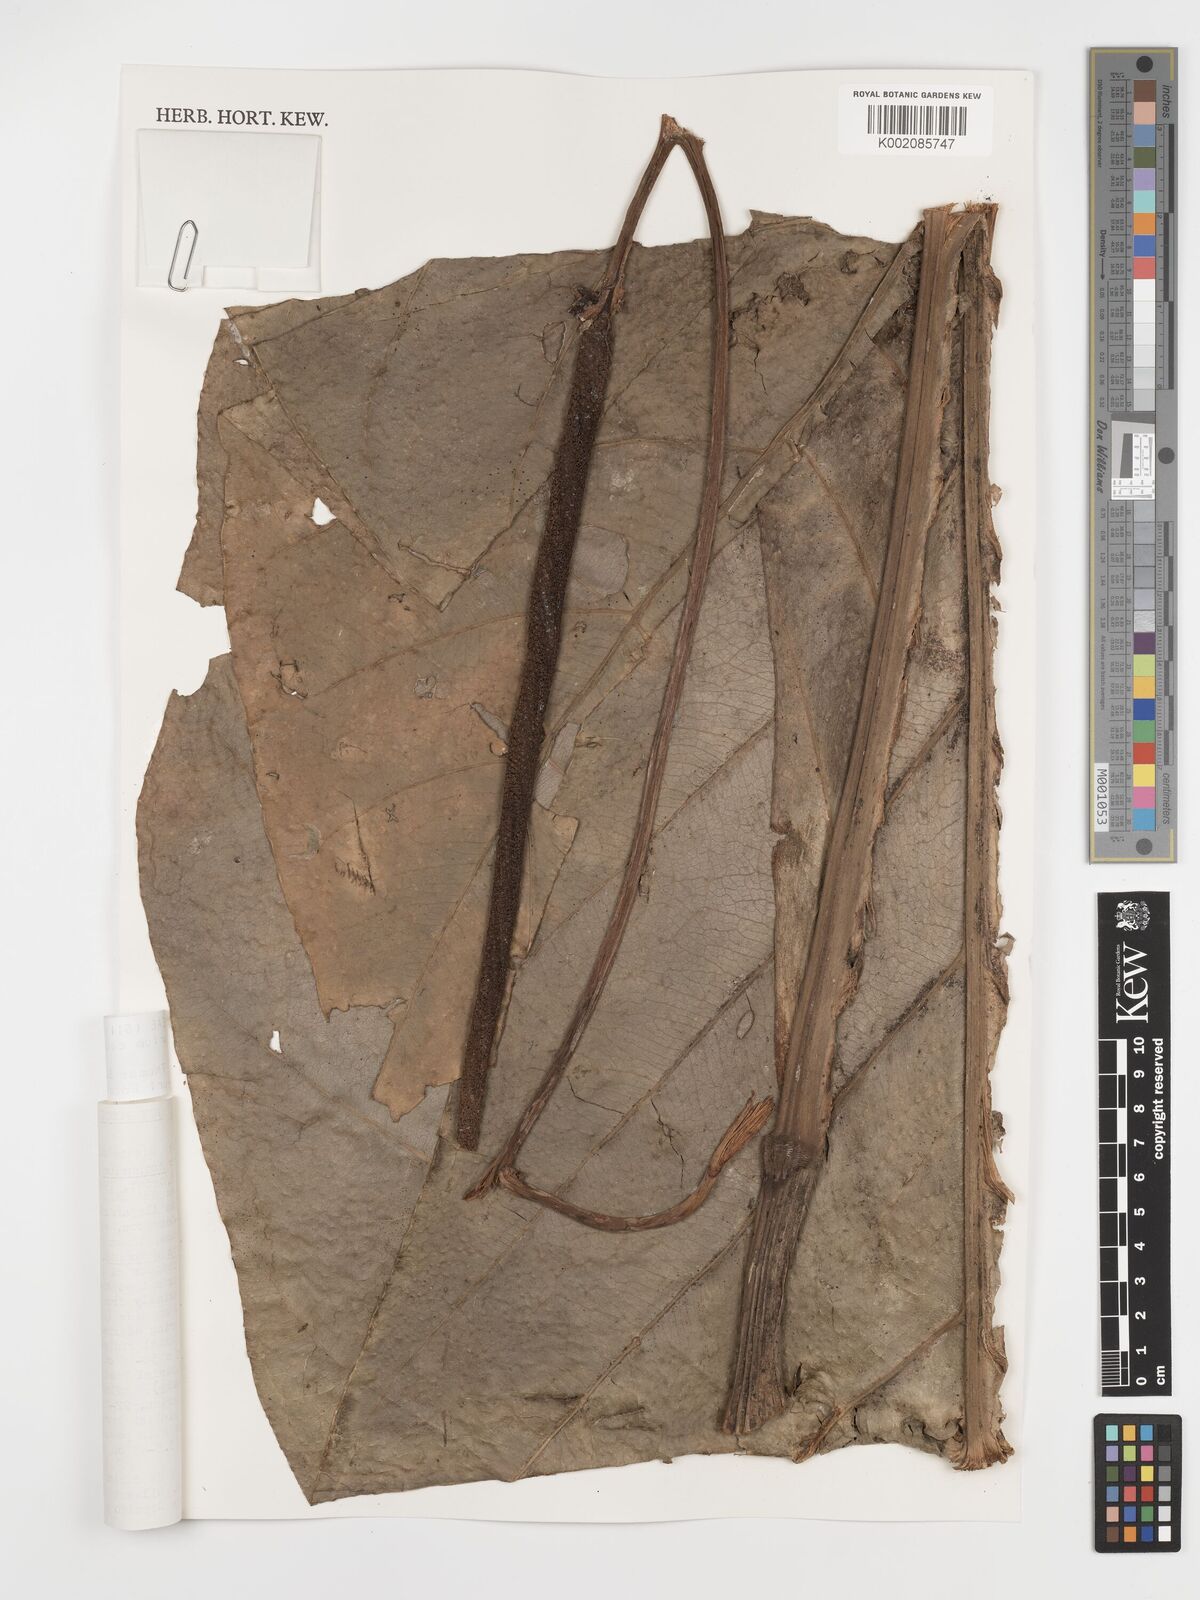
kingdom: Plantae
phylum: Tracheophyta
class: Liliopsida
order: Alismatales
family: Araceae
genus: Anthurium
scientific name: Anthurium caucavallense
